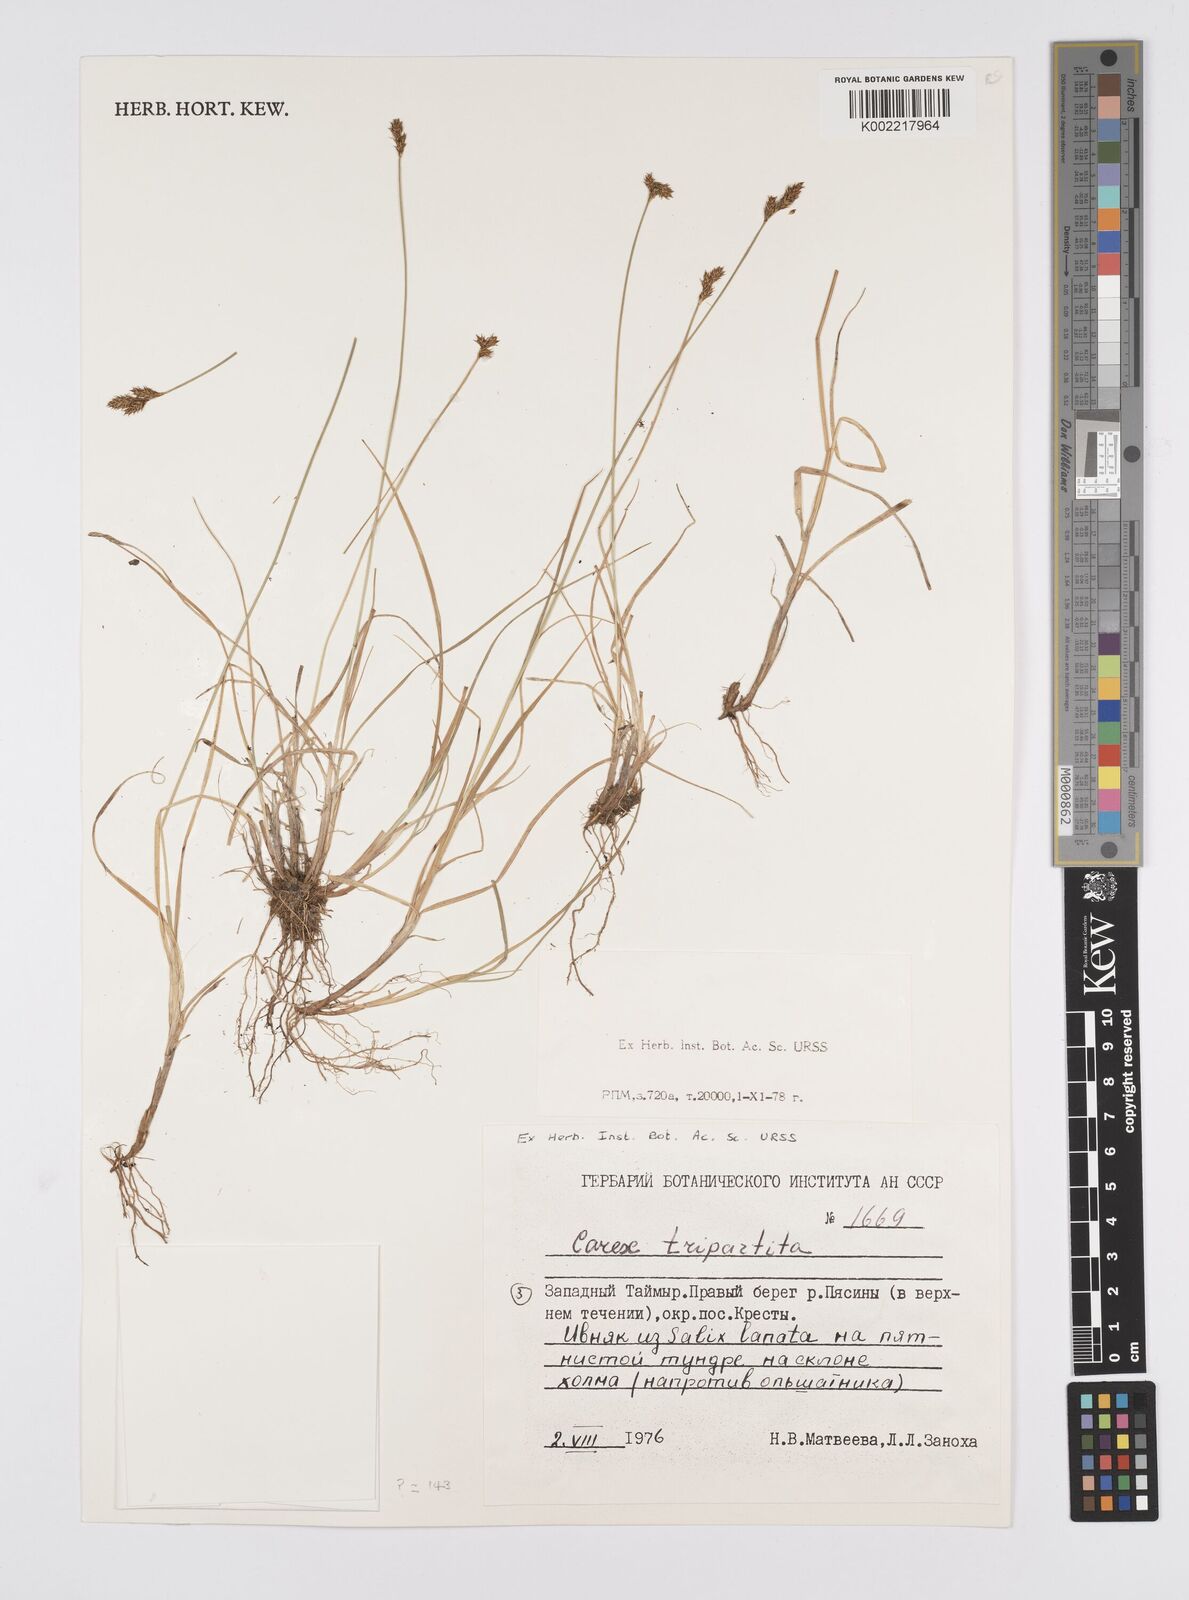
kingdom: Plantae
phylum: Tracheophyta
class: Liliopsida
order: Poales
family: Cyperaceae
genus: Carex
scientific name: Carex curvula
